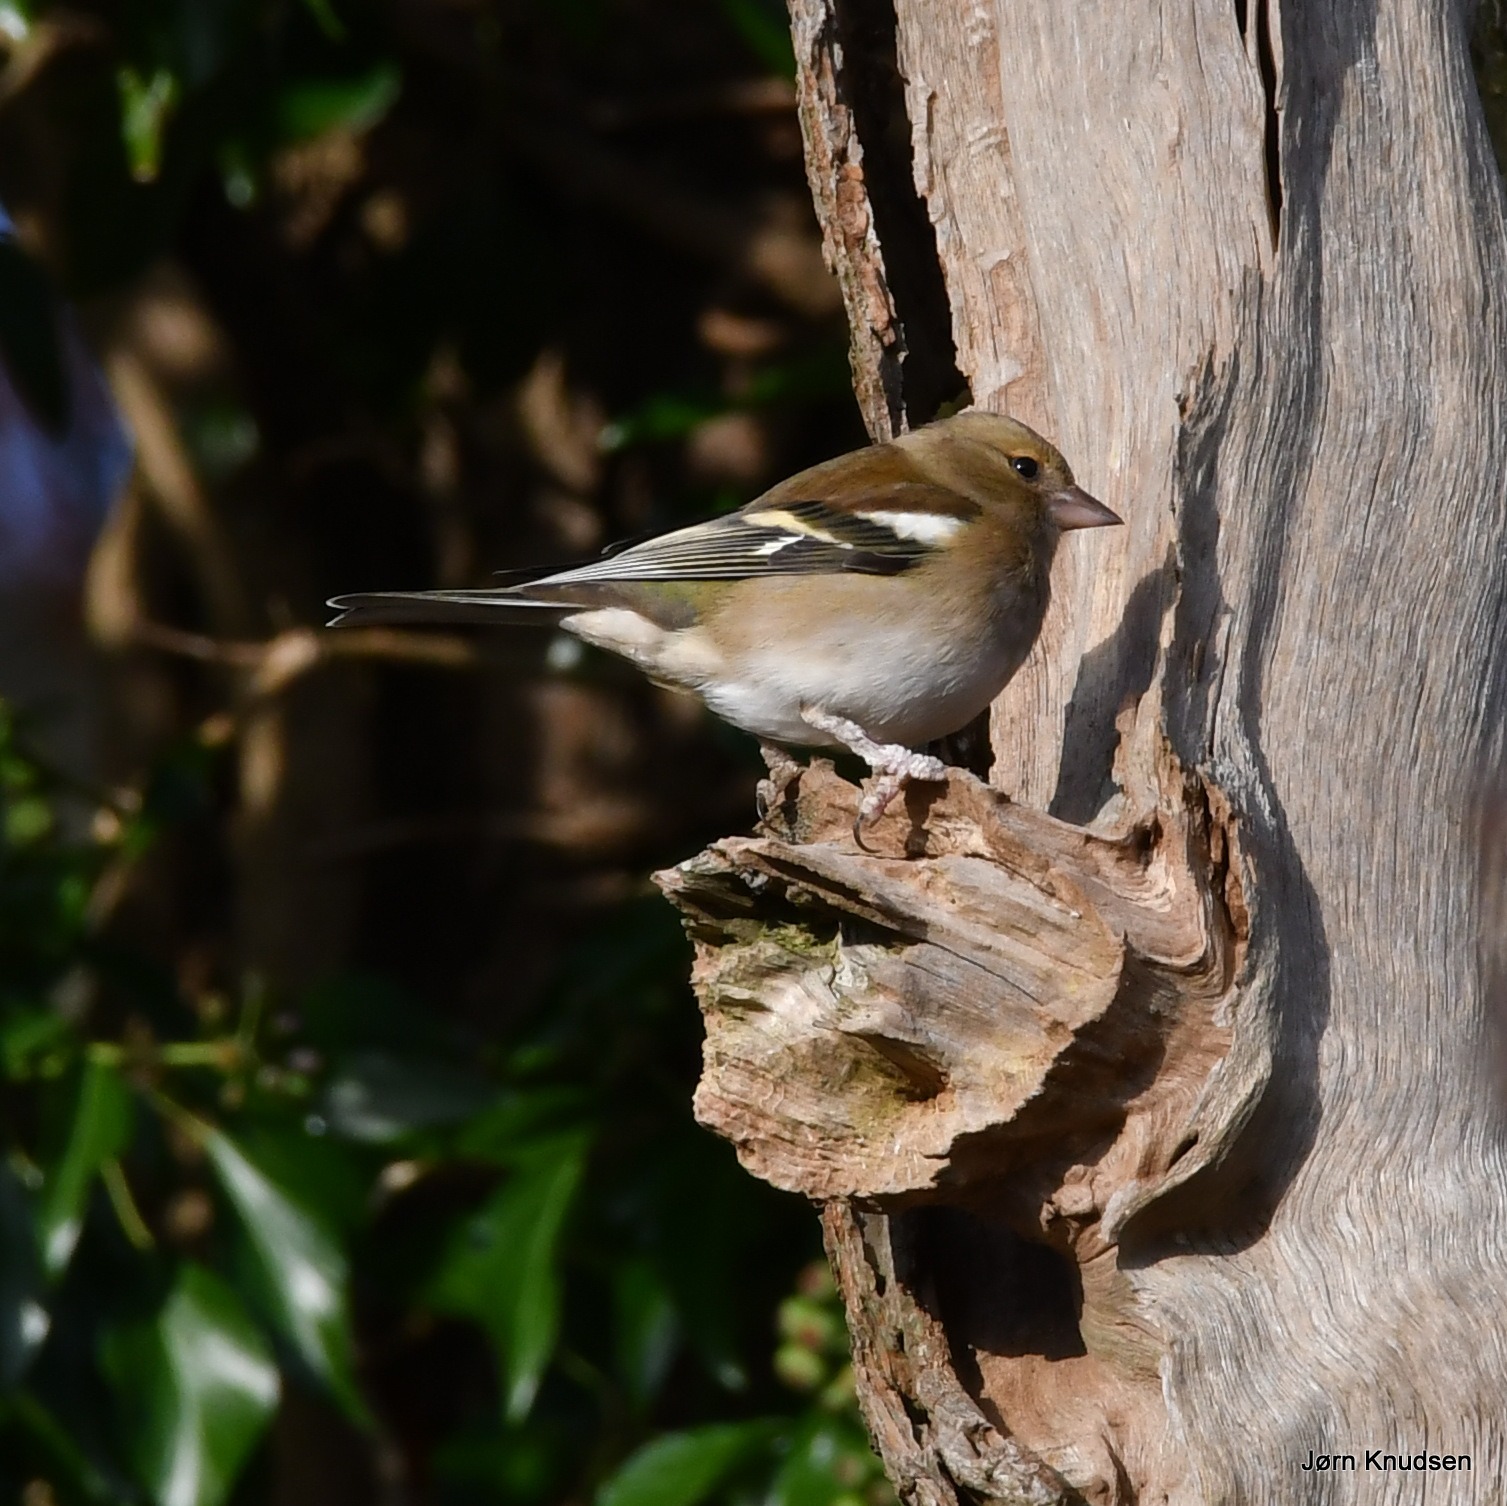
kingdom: Animalia
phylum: Chordata
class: Aves
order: Passeriformes
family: Fringillidae
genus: Fringilla
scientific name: Fringilla coelebs
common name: Bogfinke
